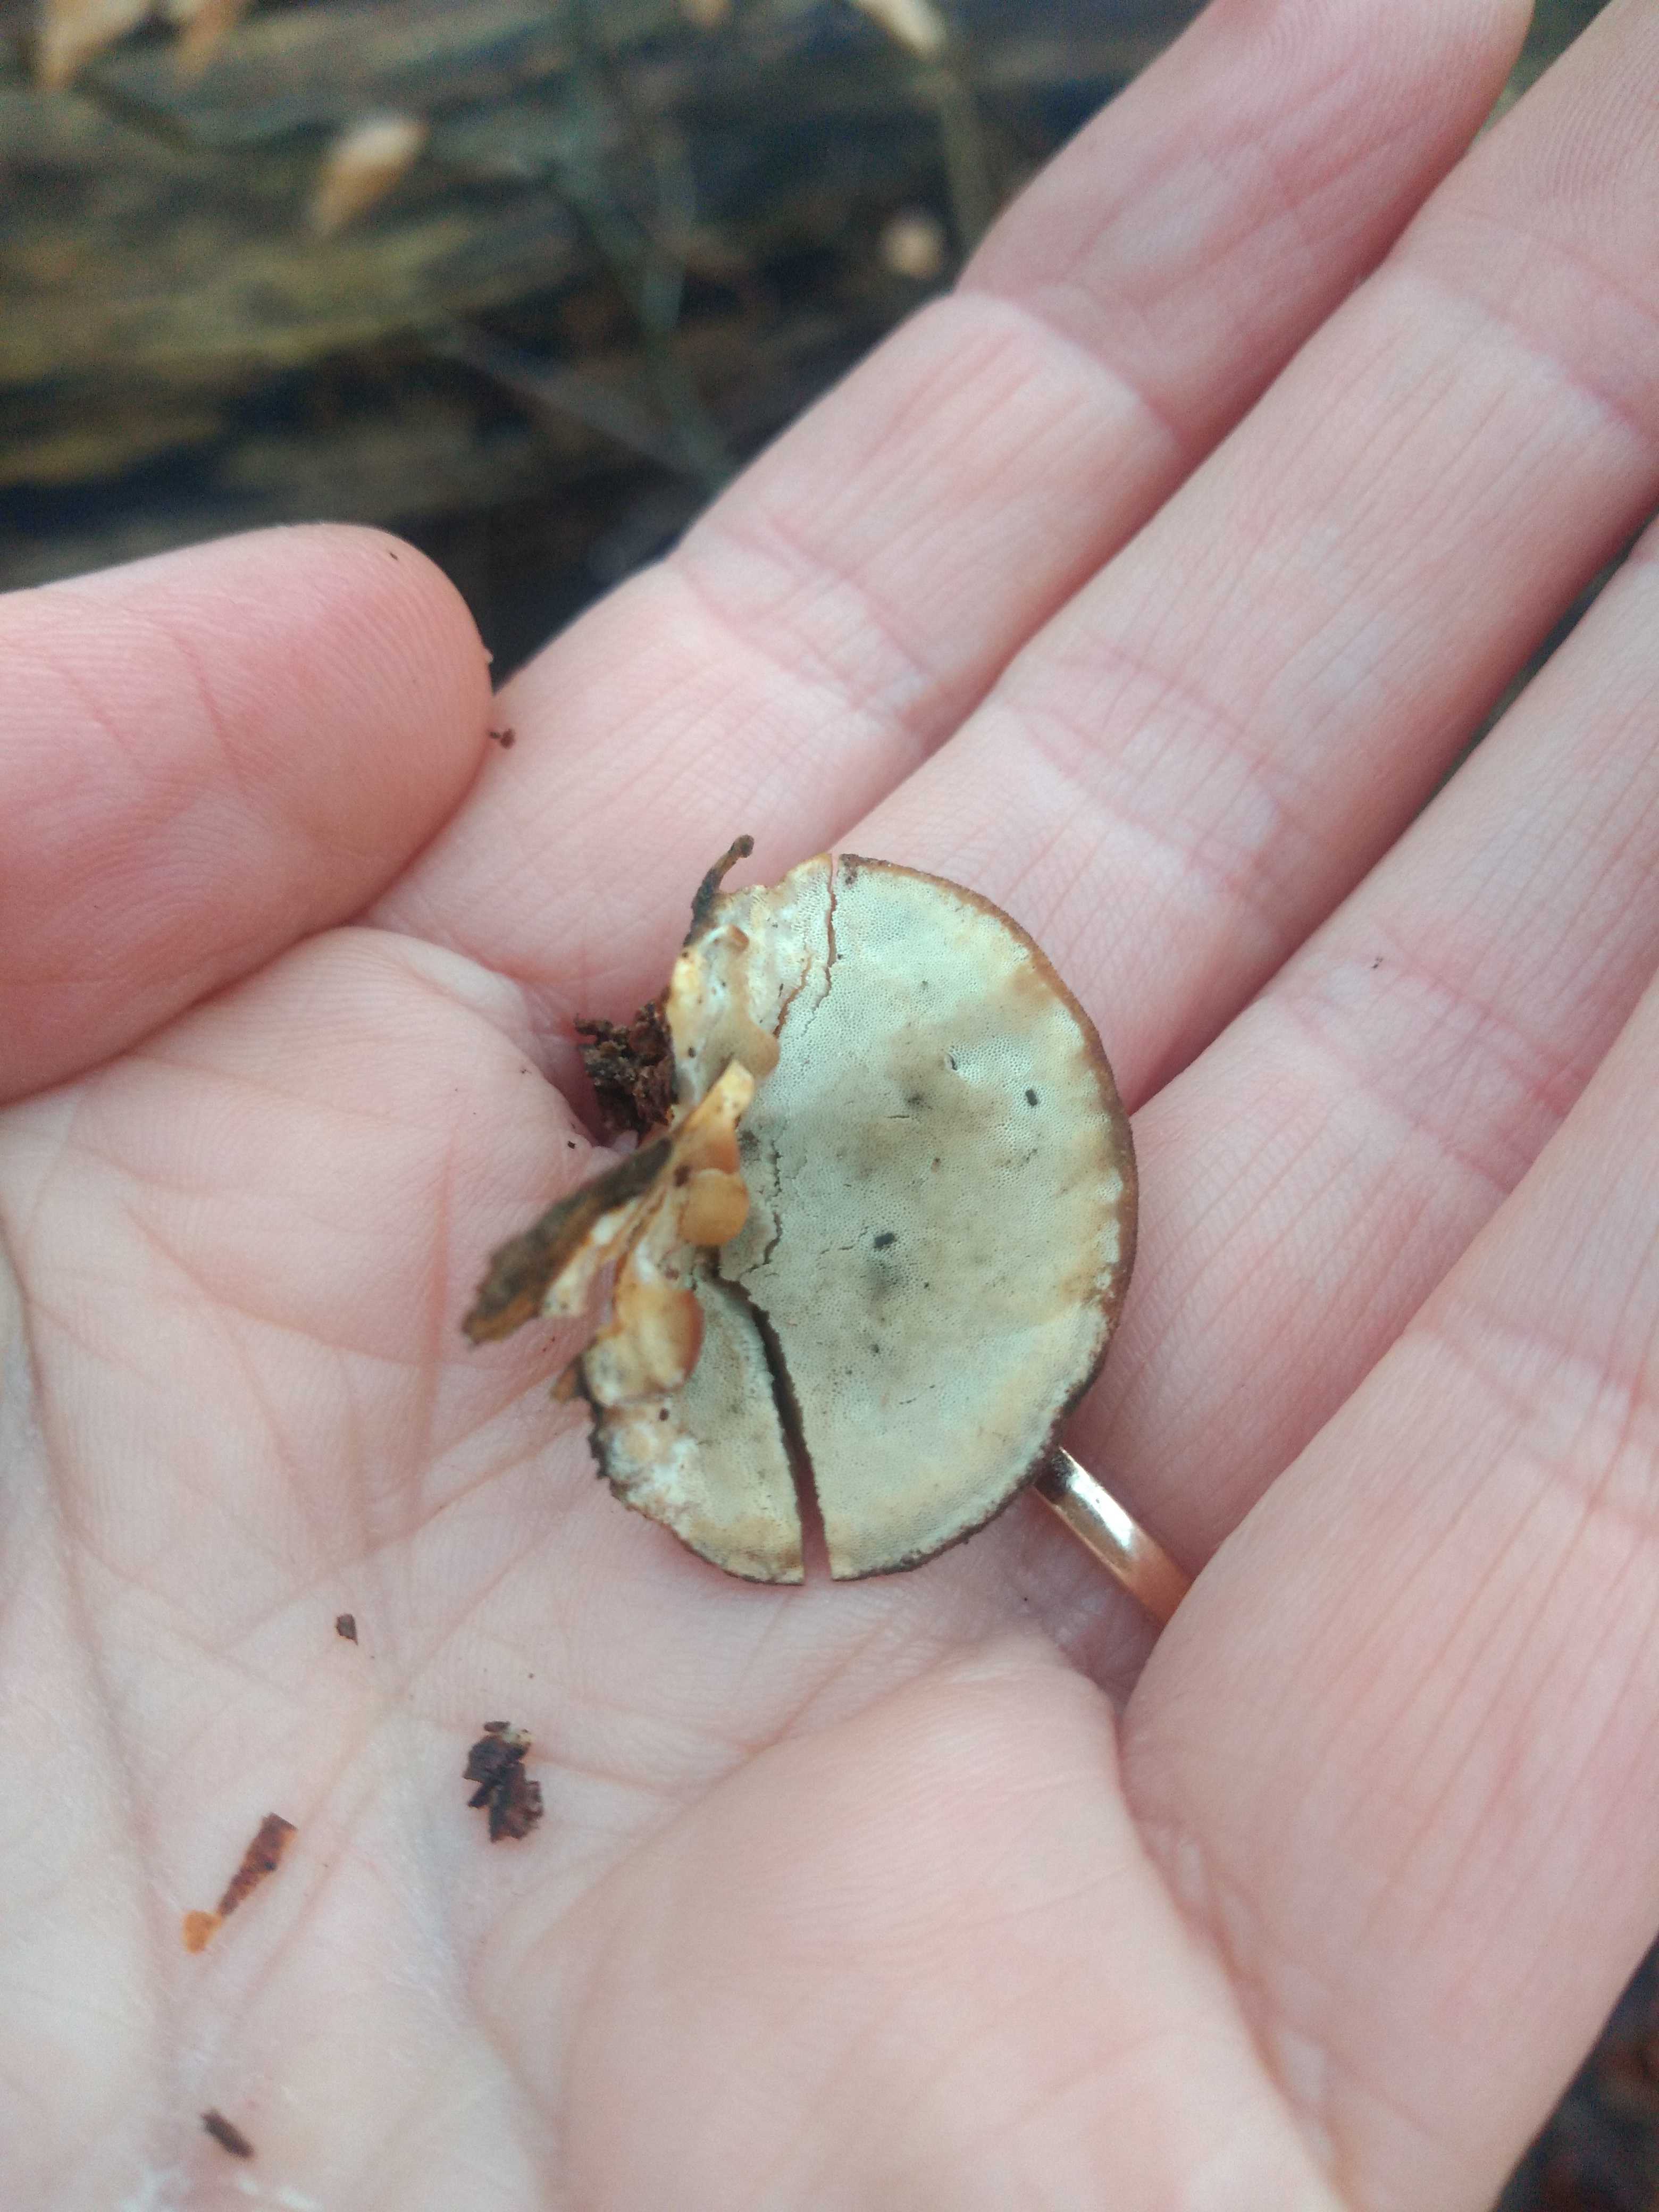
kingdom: Fungi
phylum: Basidiomycota
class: Agaricomycetes
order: Polyporales
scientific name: Polyporales
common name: poresvampordenen
